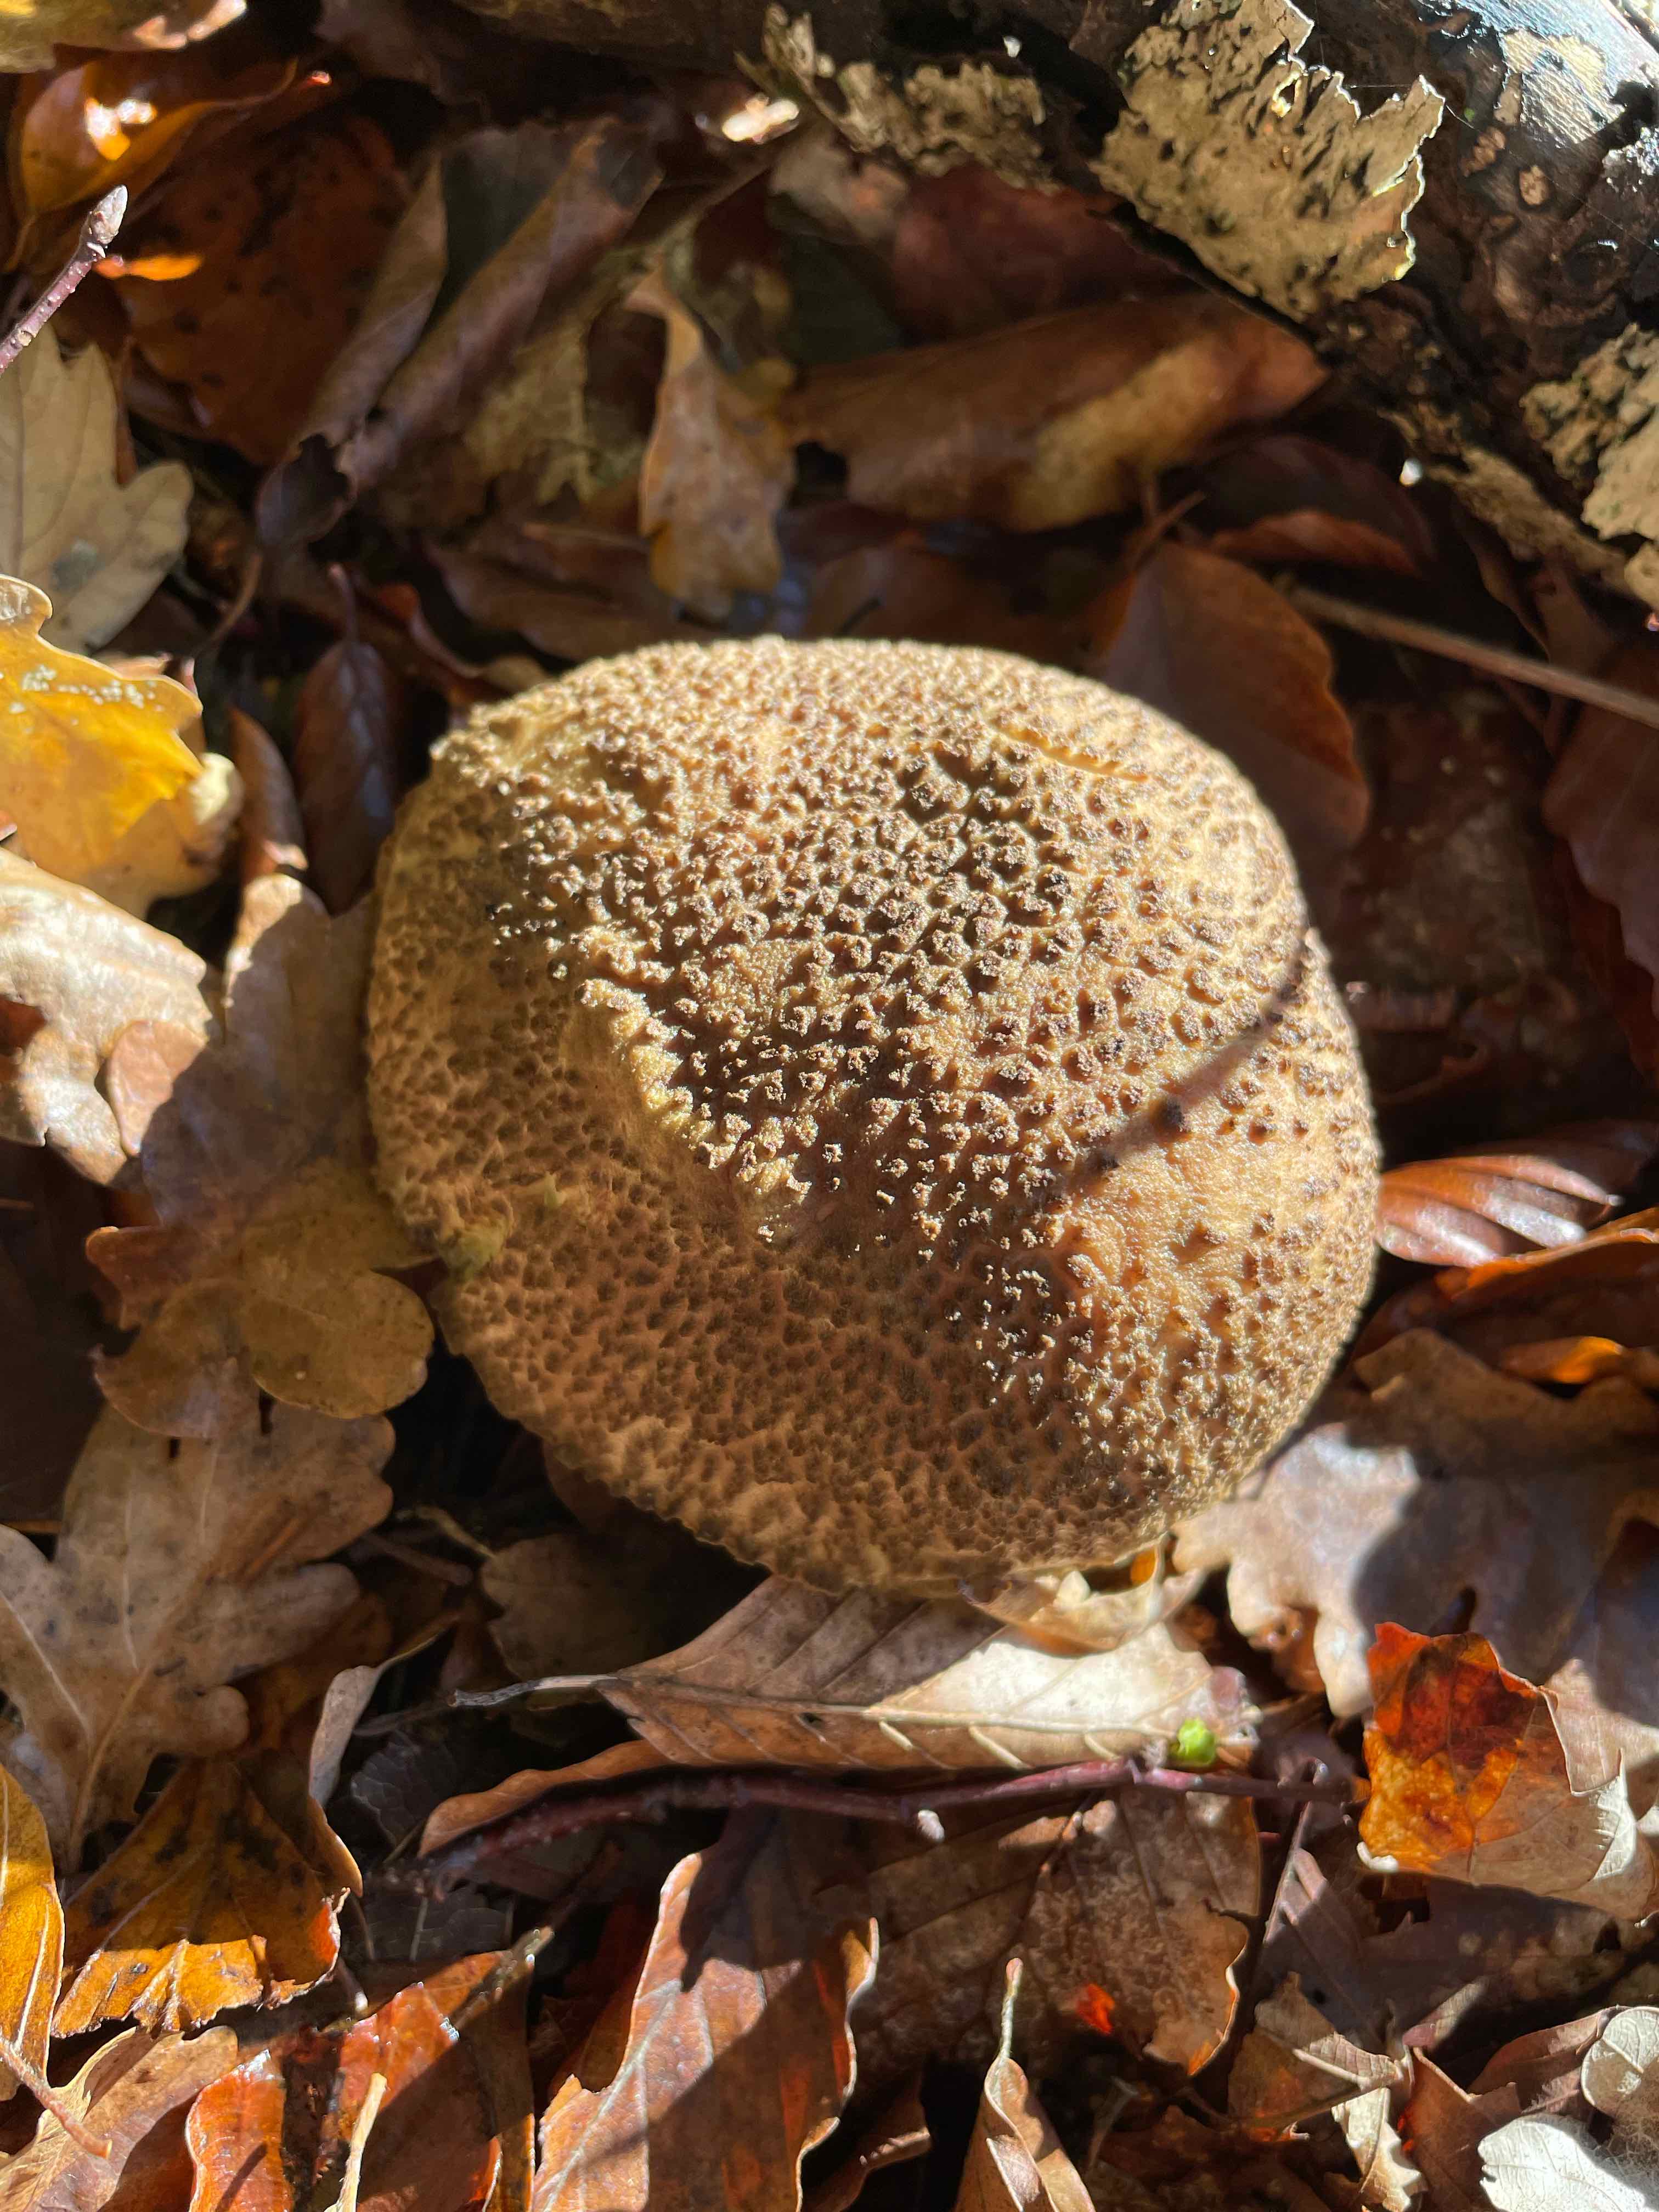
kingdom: Fungi
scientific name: Fungi
